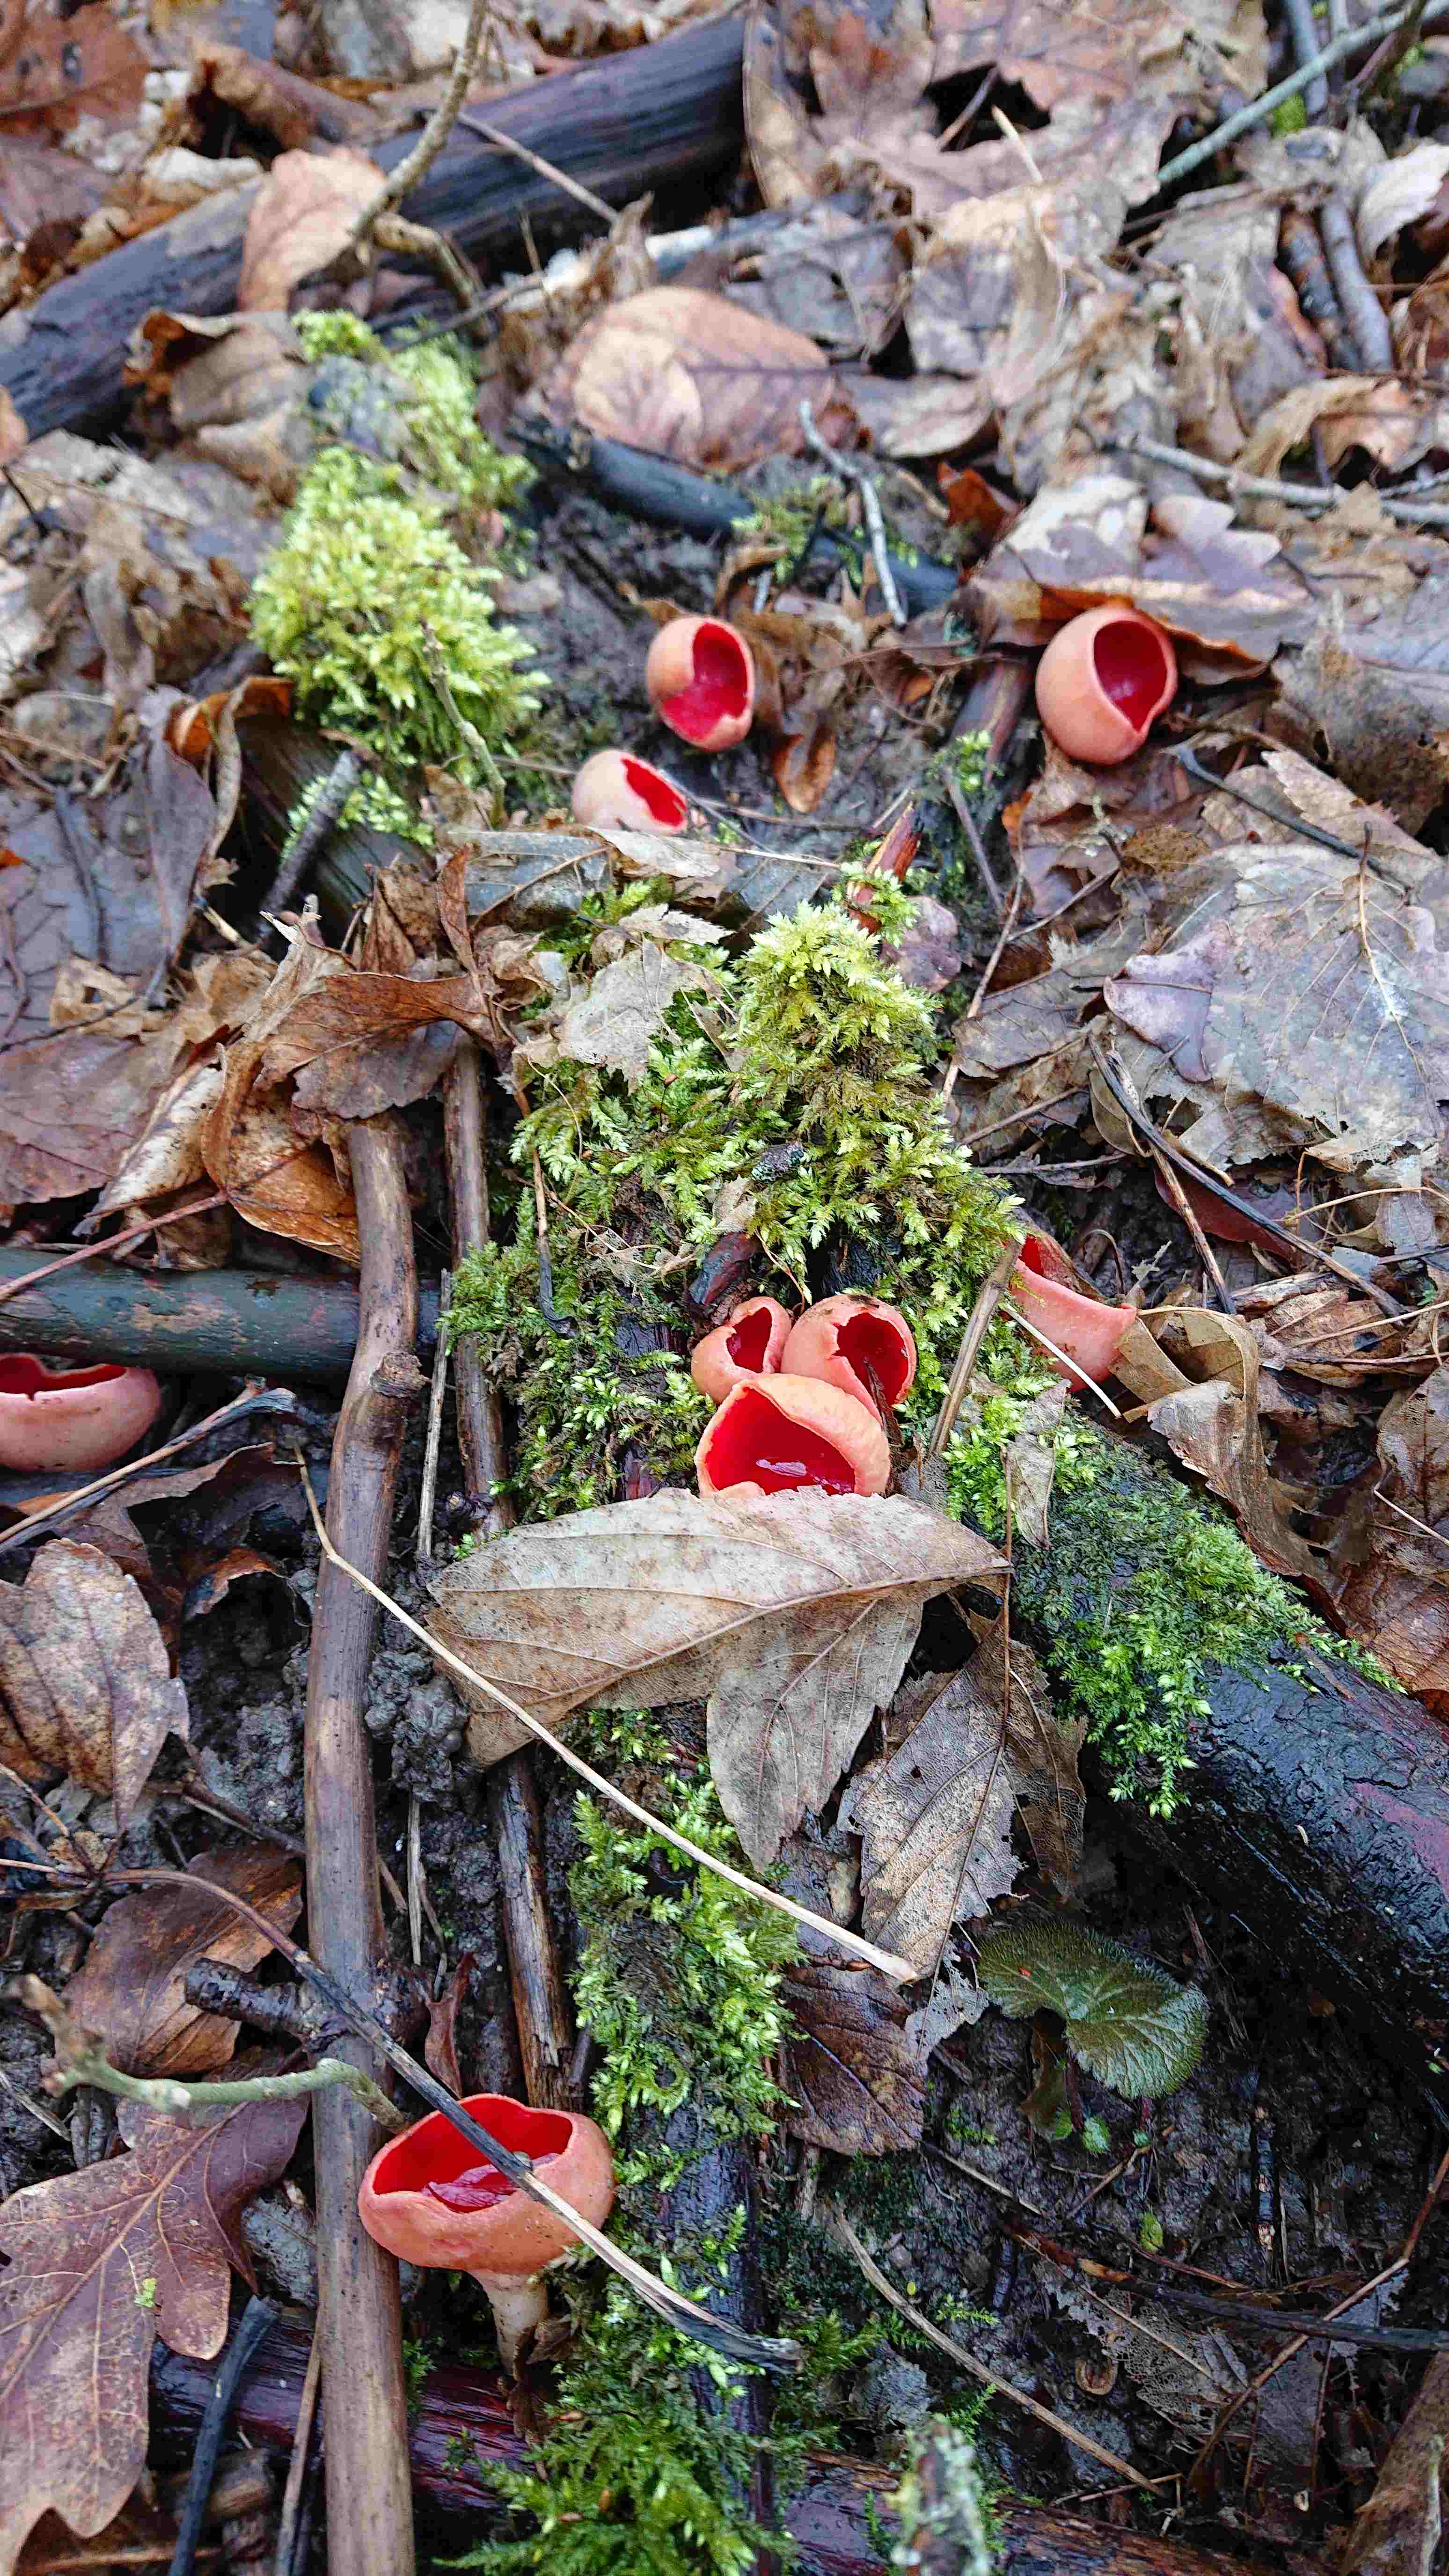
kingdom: Fungi
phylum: Ascomycota
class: Pezizomycetes
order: Pezizales
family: Sarcoscyphaceae
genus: Sarcoscypha
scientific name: Sarcoscypha austriaca
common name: krølhåret pragtbæger
